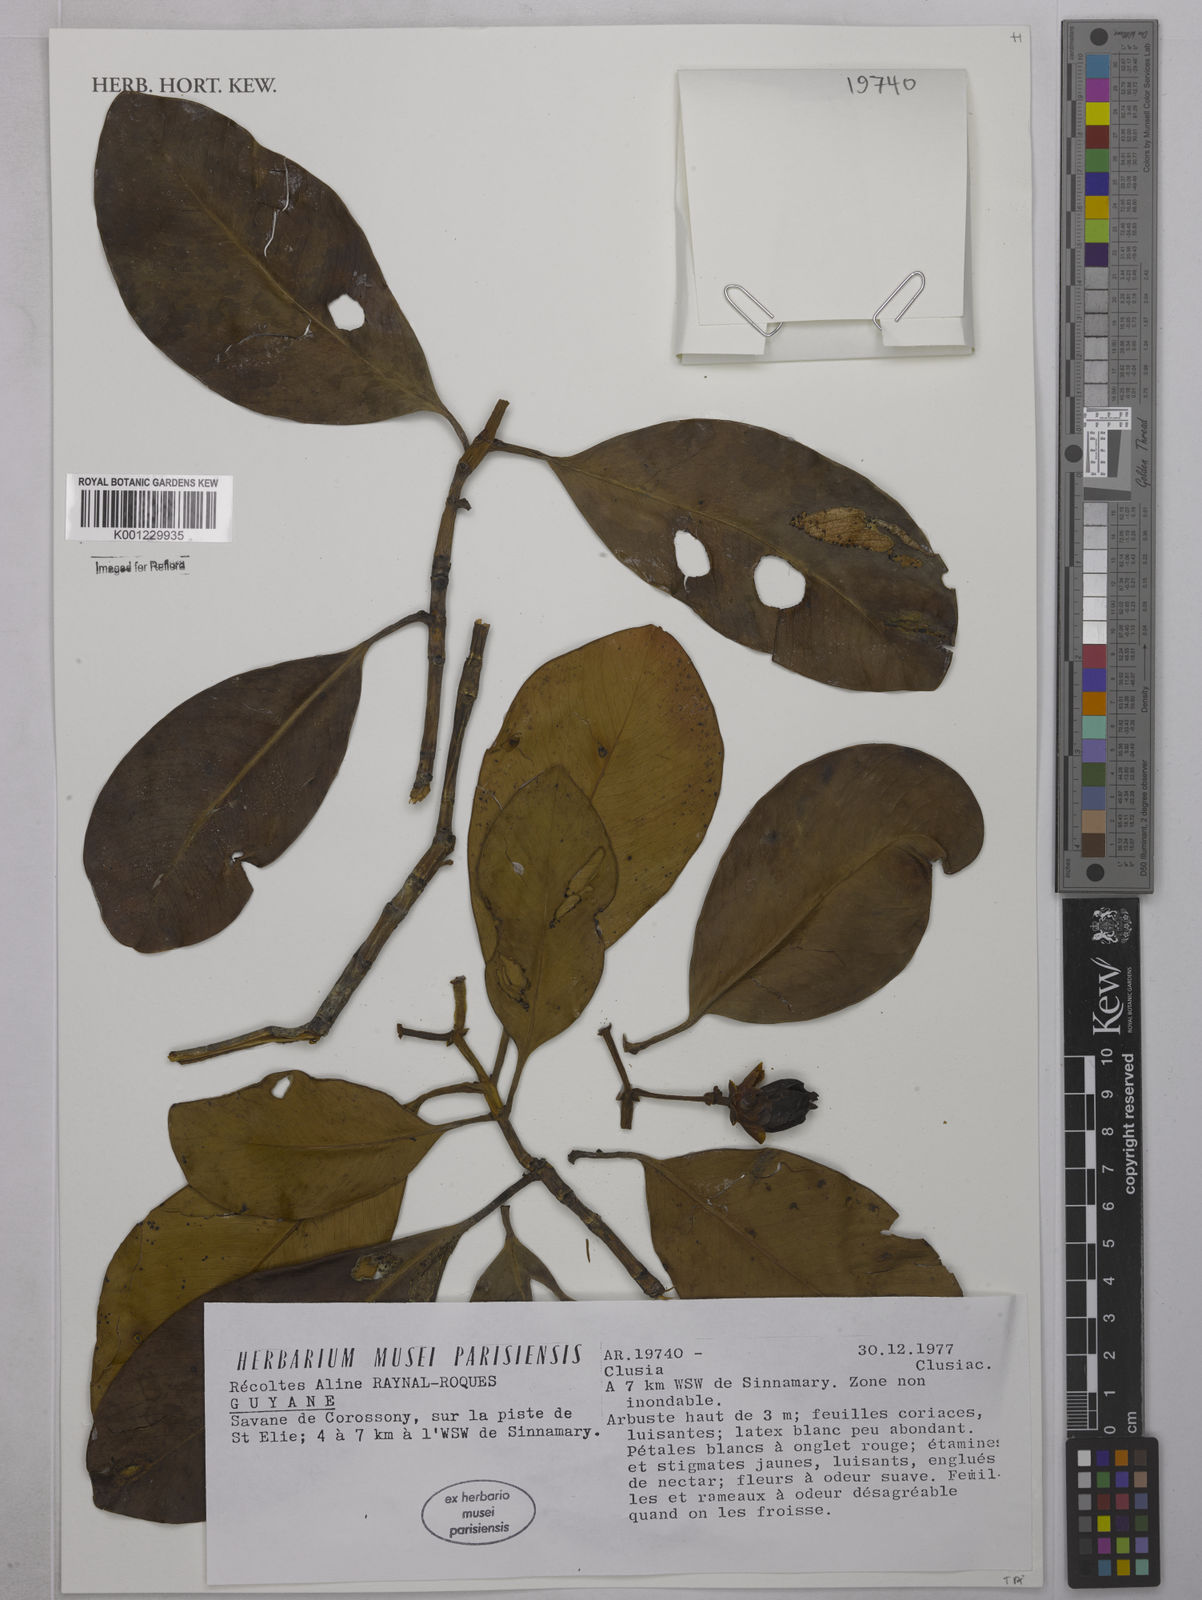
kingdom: Plantae
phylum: Tracheophyta
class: Magnoliopsida
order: Malpighiales
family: Clusiaceae
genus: Clusia
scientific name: Clusia
